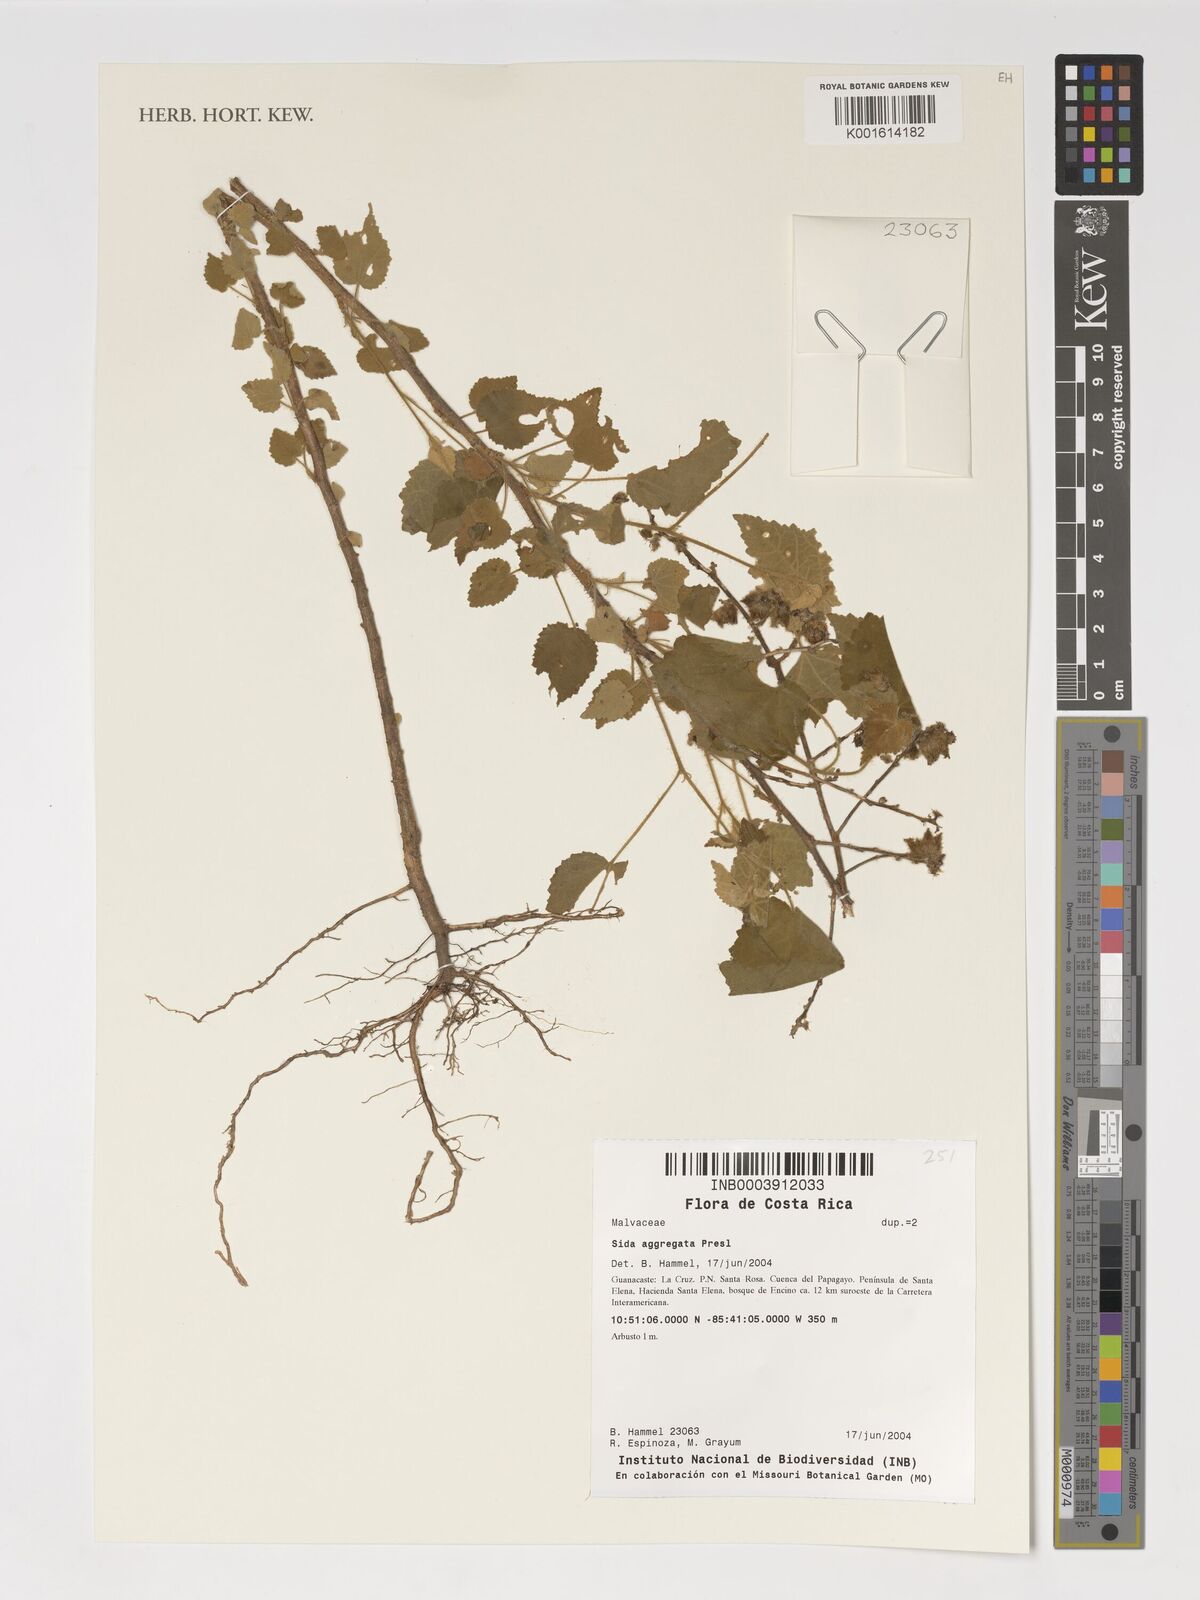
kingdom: Plantae
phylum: Tracheophyta
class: Magnoliopsida
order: Malvales
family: Malvaceae
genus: Sida
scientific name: Sida aggregata
